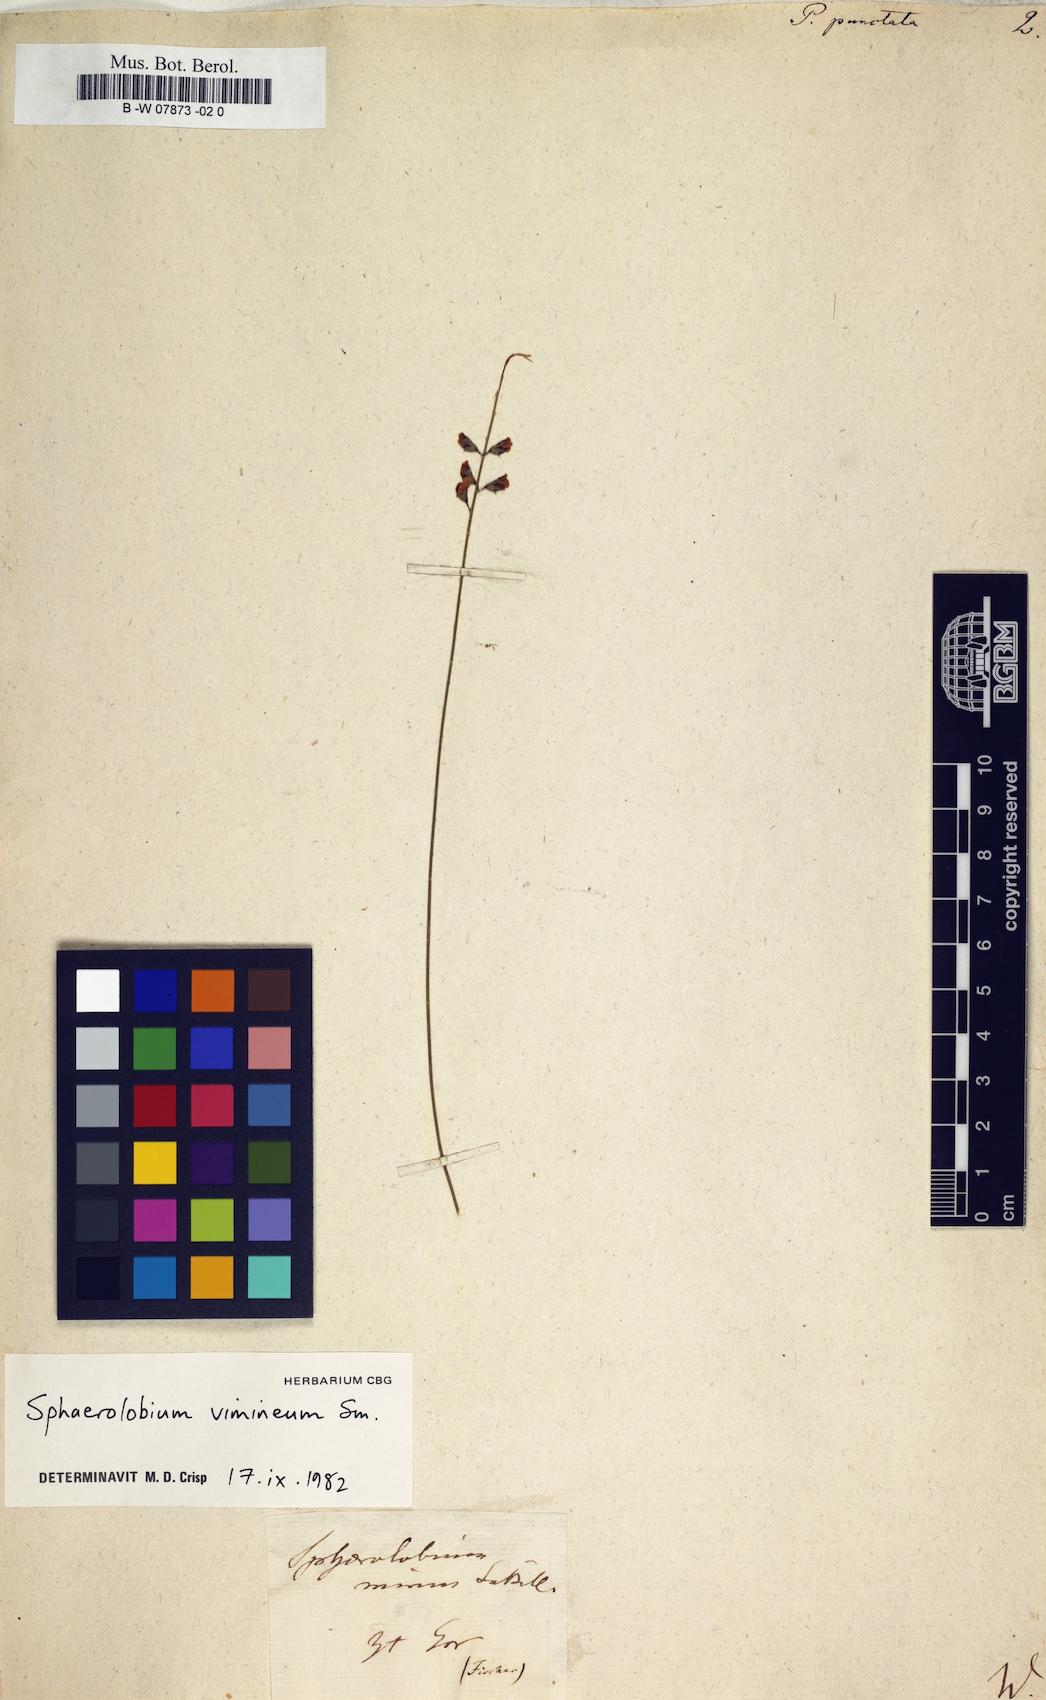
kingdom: Plantae
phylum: Tracheophyta
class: Magnoliopsida
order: Fabales
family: Fabaceae
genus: Pultenaea
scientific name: Pultenaea
